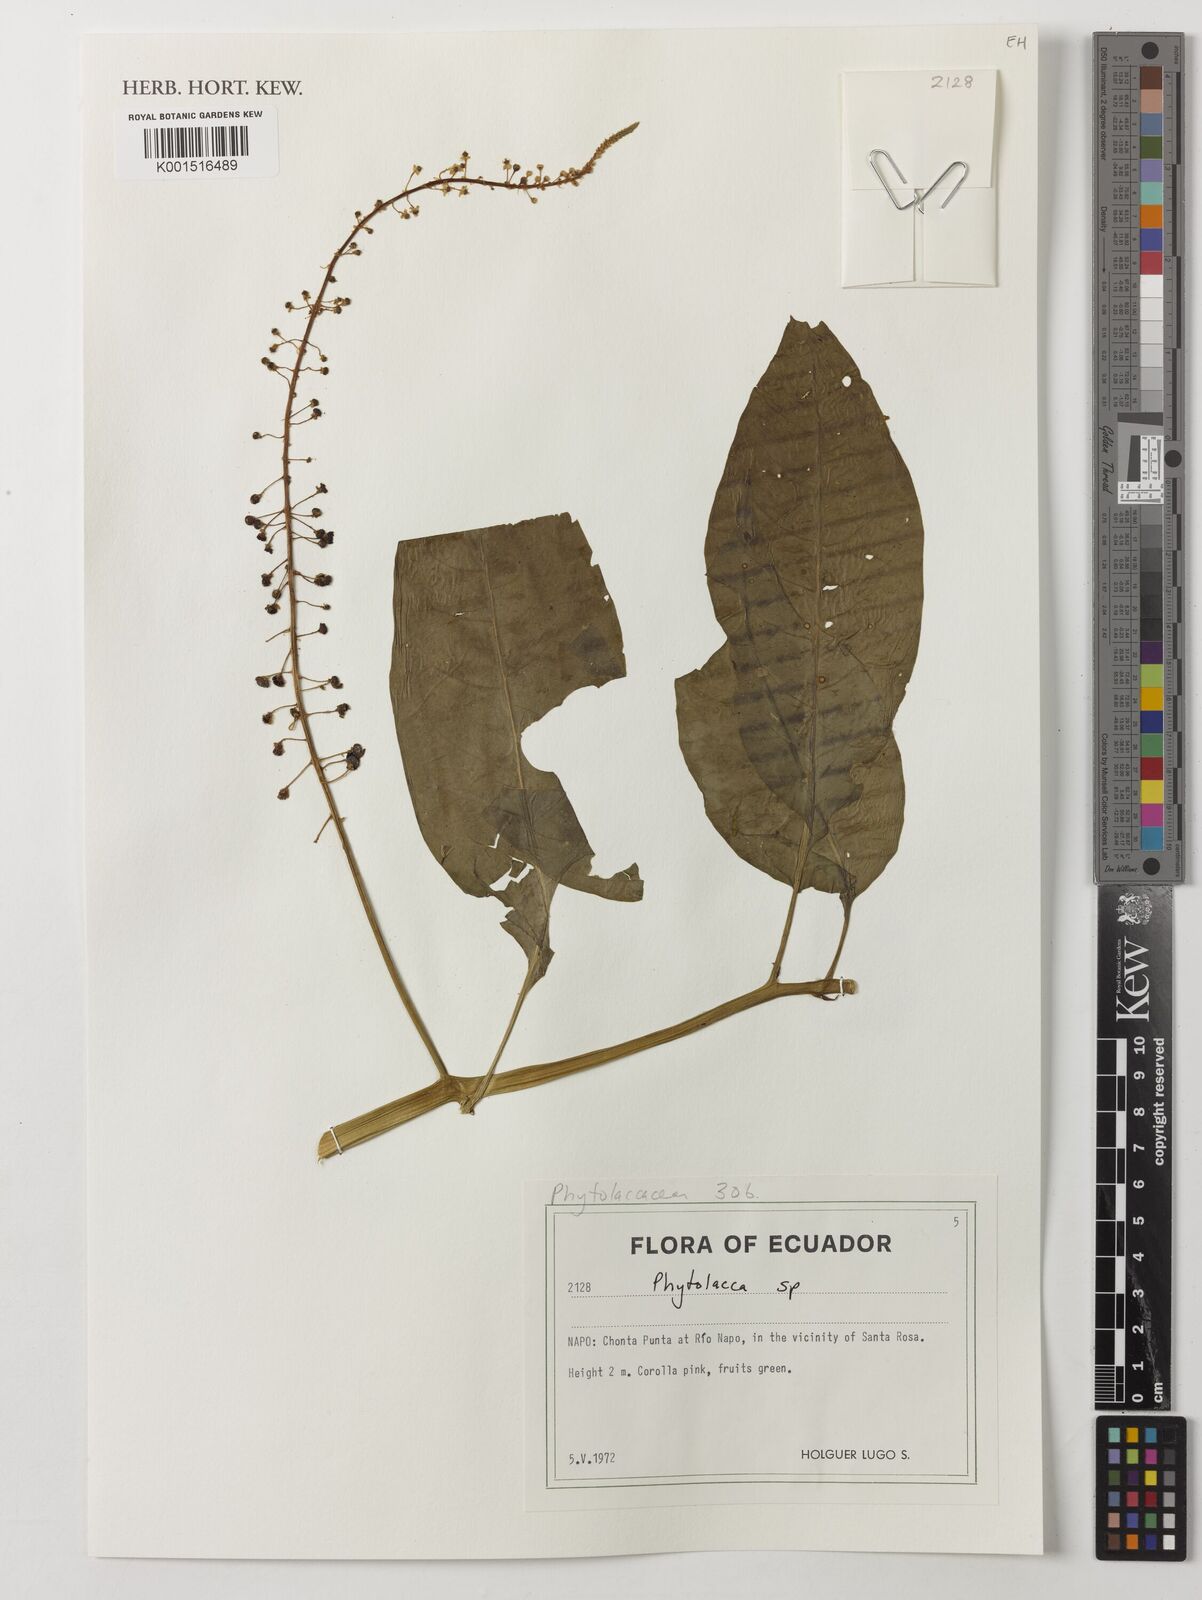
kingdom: Plantae
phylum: Tracheophyta
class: Magnoliopsida
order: Caryophyllales
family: Phytolaccaceae
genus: Phytolacca
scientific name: Phytolacca
